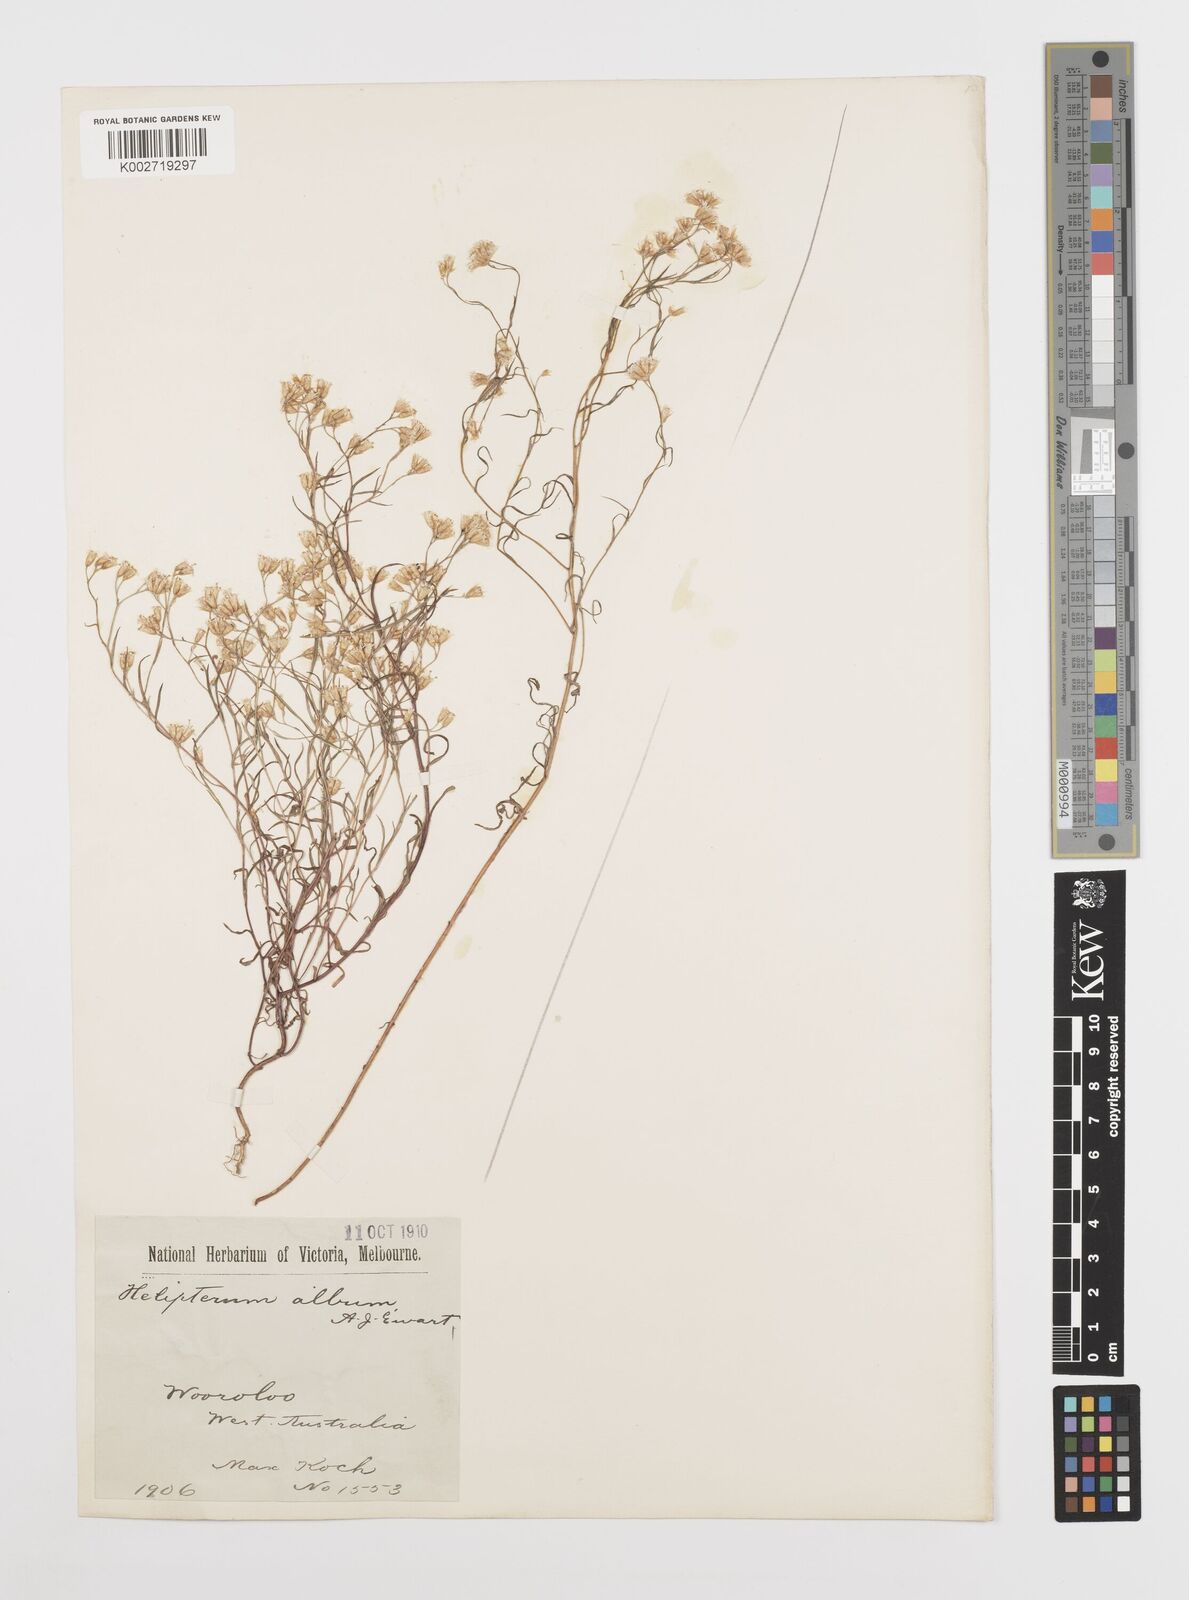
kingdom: Plantae
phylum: Tracheophyta
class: Magnoliopsida
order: Asterales
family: Asteraceae
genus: Rhodanthe
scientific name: Rhodanthe corymbosa
